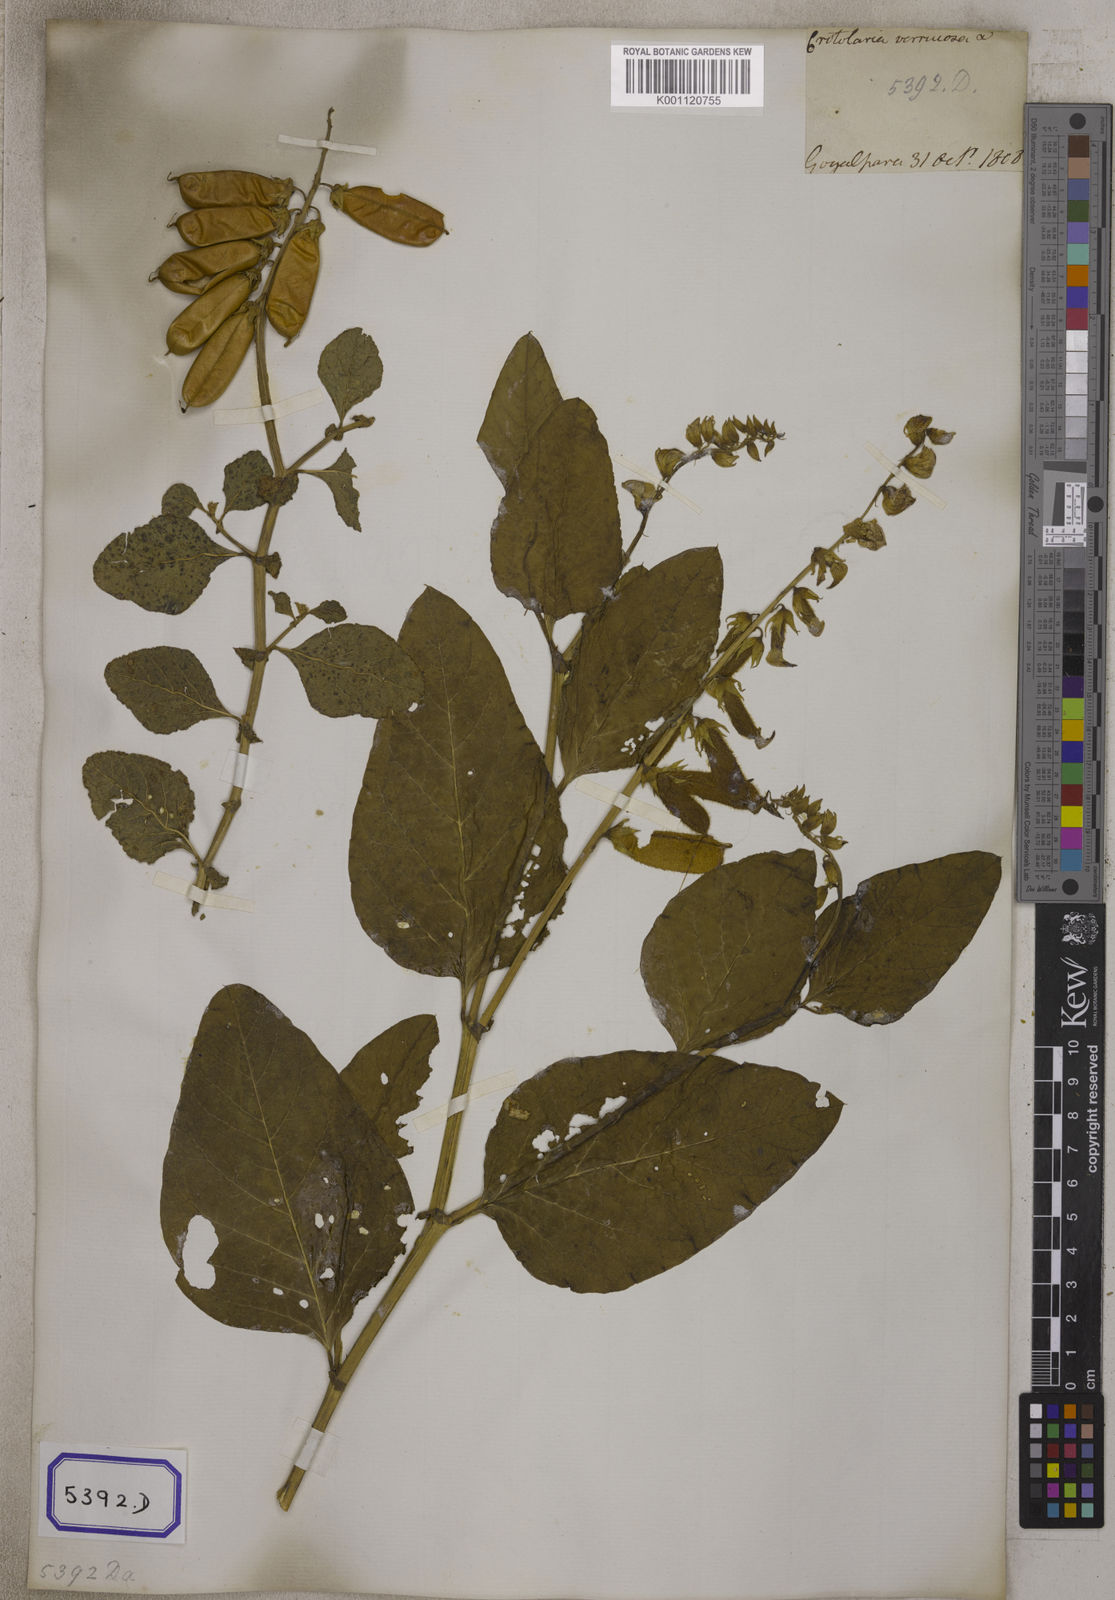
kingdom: Plantae
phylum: Tracheophyta
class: Magnoliopsida
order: Fabales
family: Fabaceae
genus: Crotalaria
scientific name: Crotalaria verrucosa
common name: Blue rattlesnake
